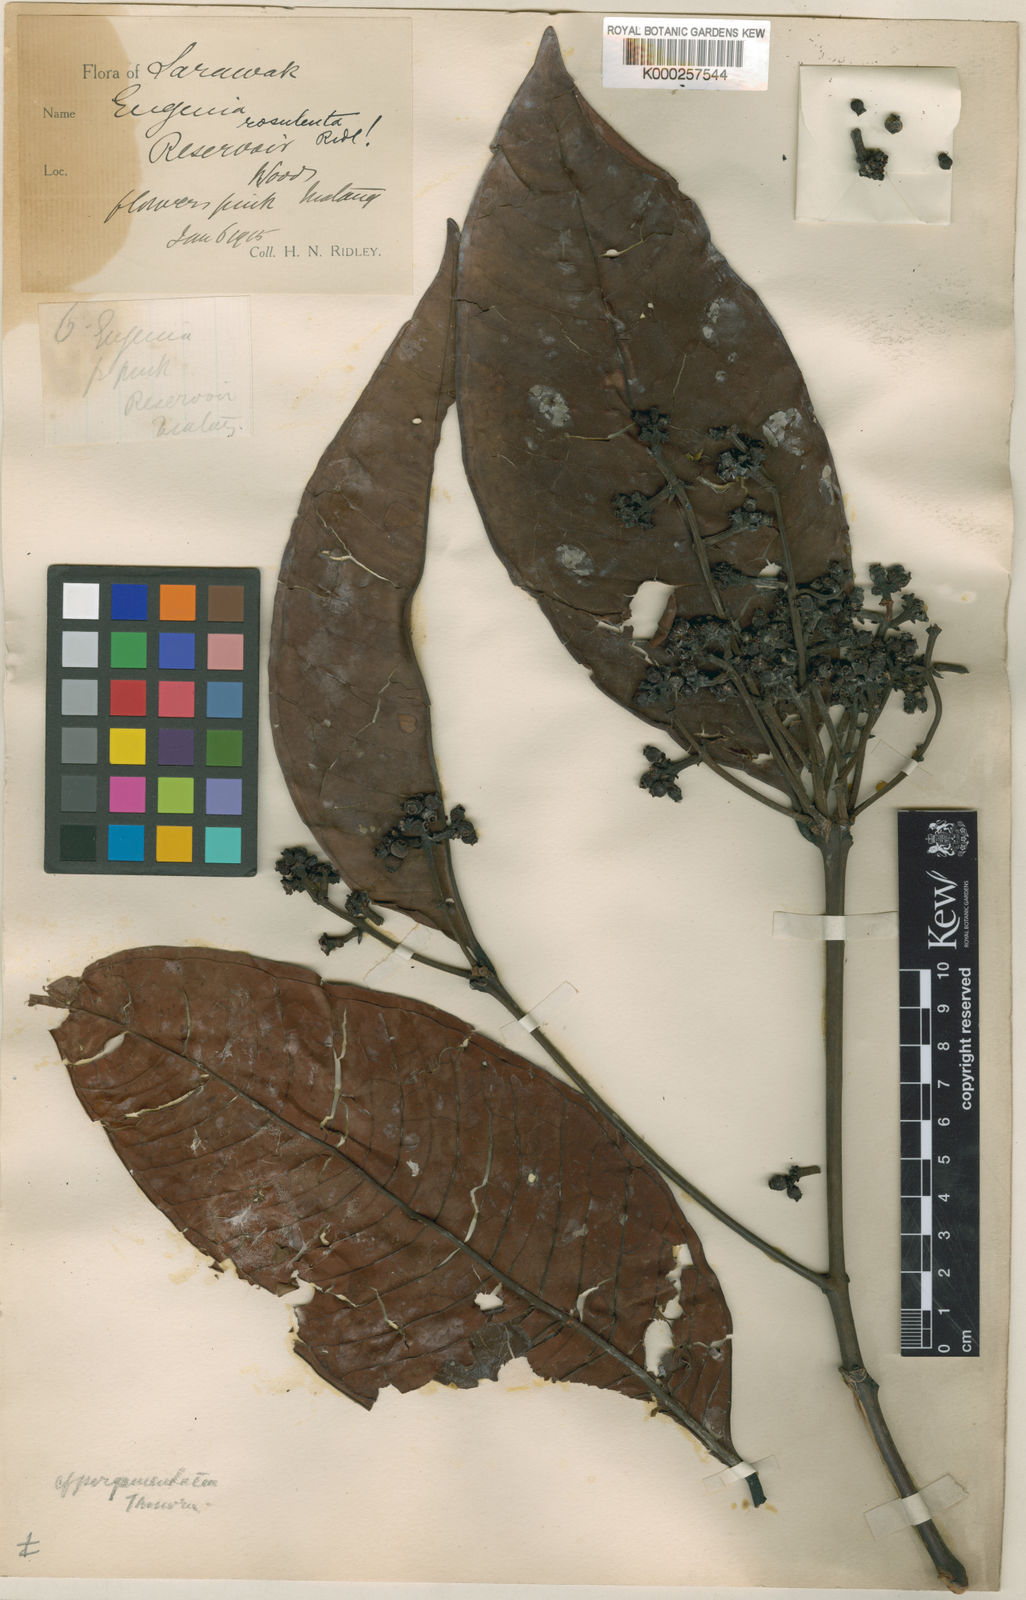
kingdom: Plantae
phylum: Tracheophyta
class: Magnoliopsida
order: Myrtales
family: Myrtaceae
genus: Syzygium
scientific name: Syzygium rosulentum
